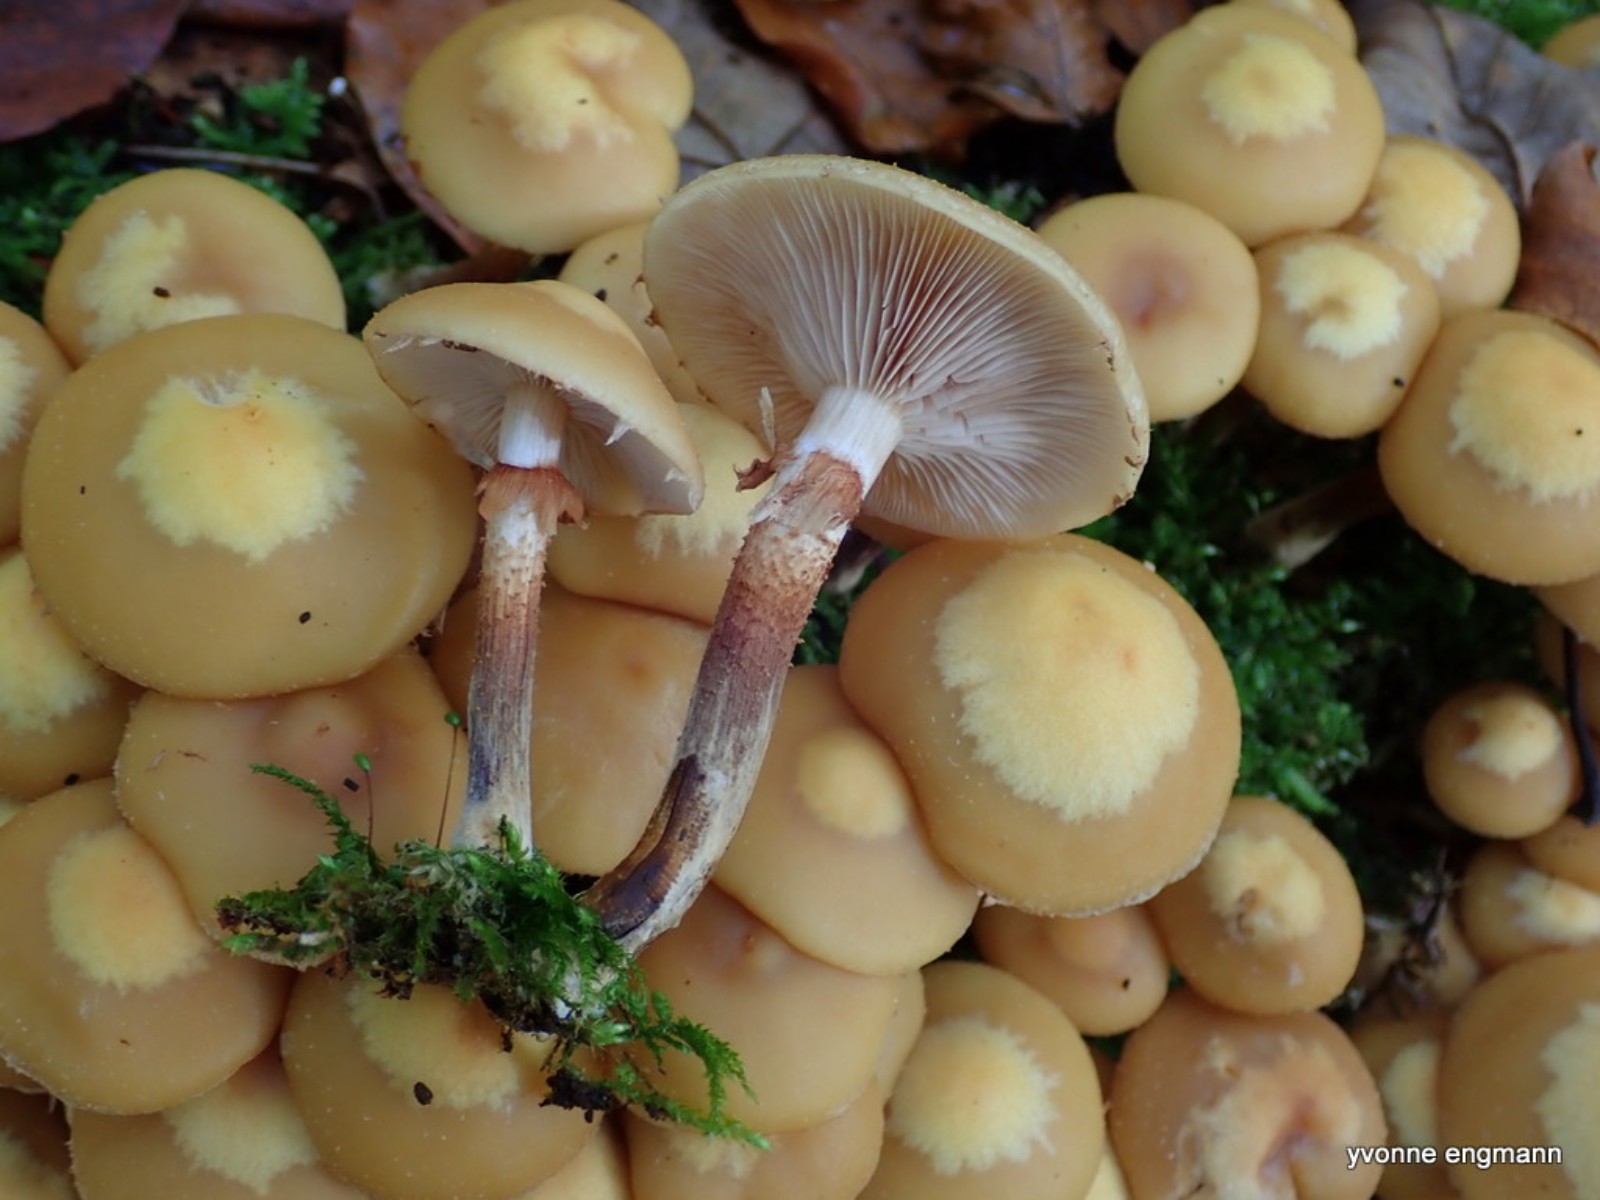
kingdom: Fungi
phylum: Basidiomycota
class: Agaricomycetes
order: Agaricales
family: Strophariaceae
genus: Kuehneromyces
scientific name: Kuehneromyces mutabilis
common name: foranderlig skælhat
